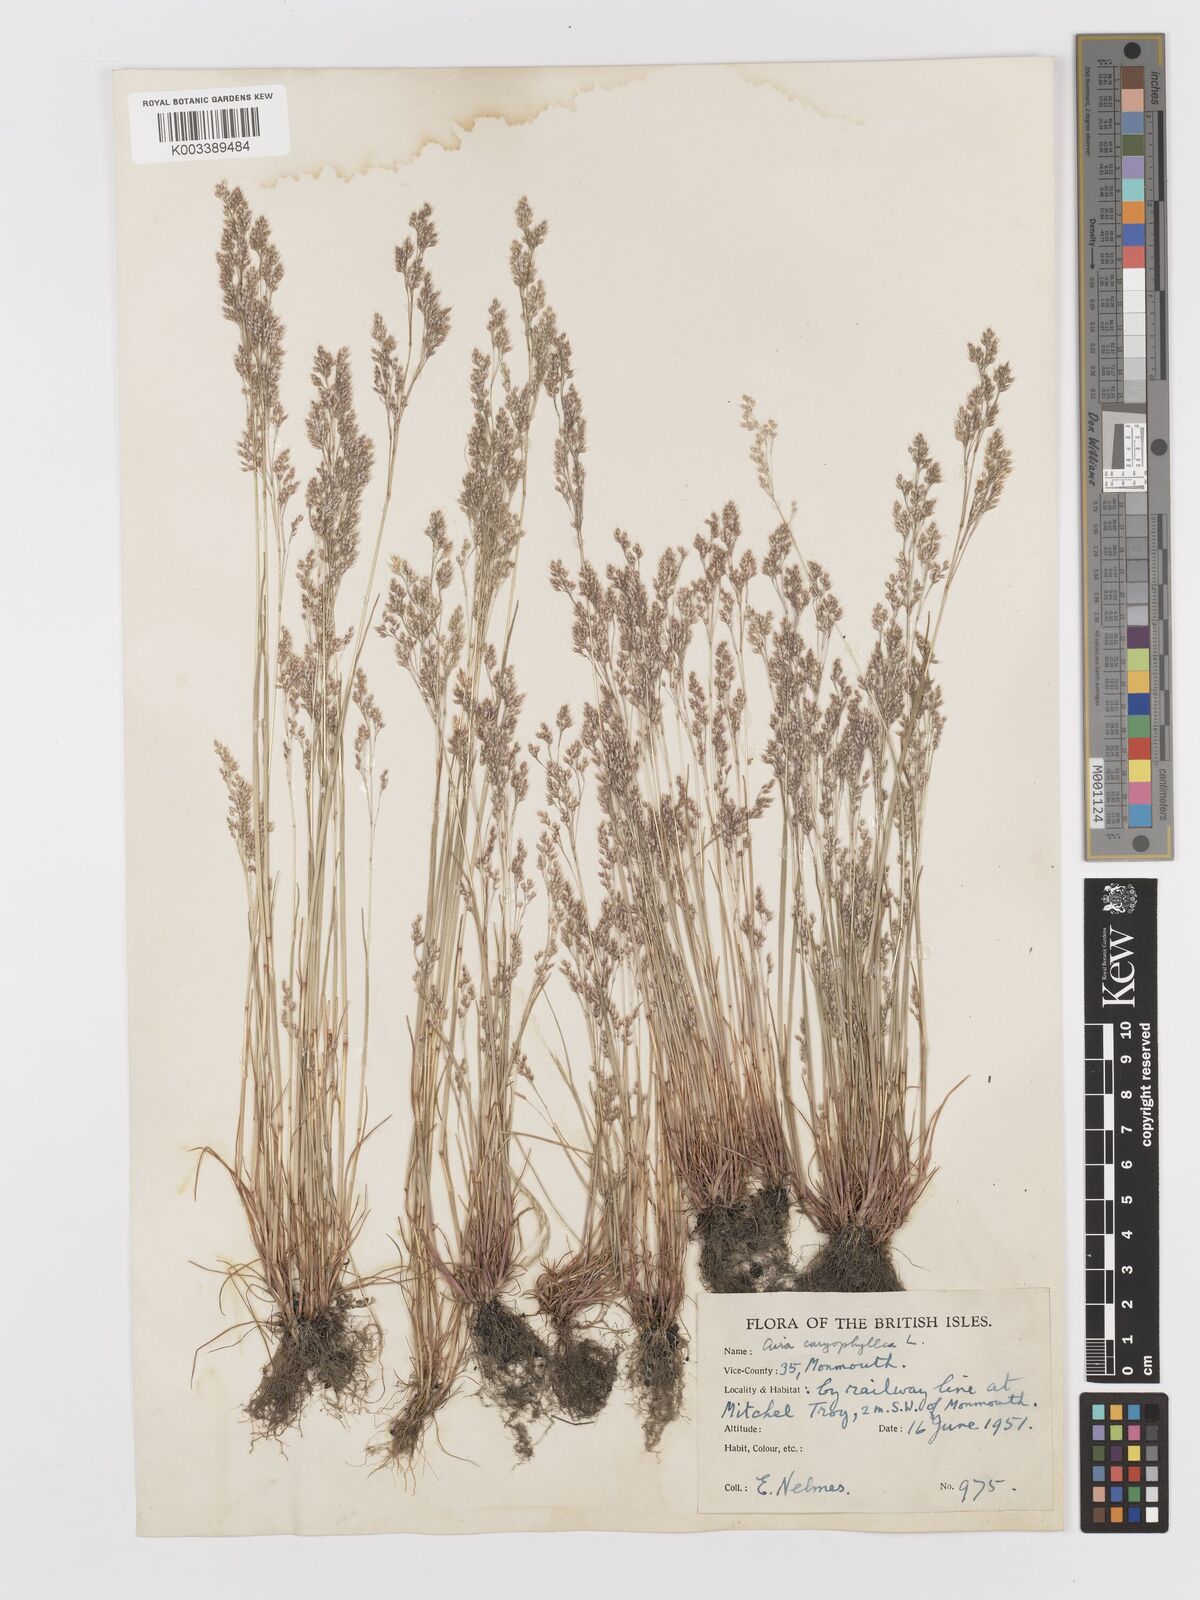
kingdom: Plantae
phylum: Tracheophyta
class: Liliopsida
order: Poales
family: Poaceae
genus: Aira
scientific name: Aira caryophyllea
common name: Silver hairgrass
